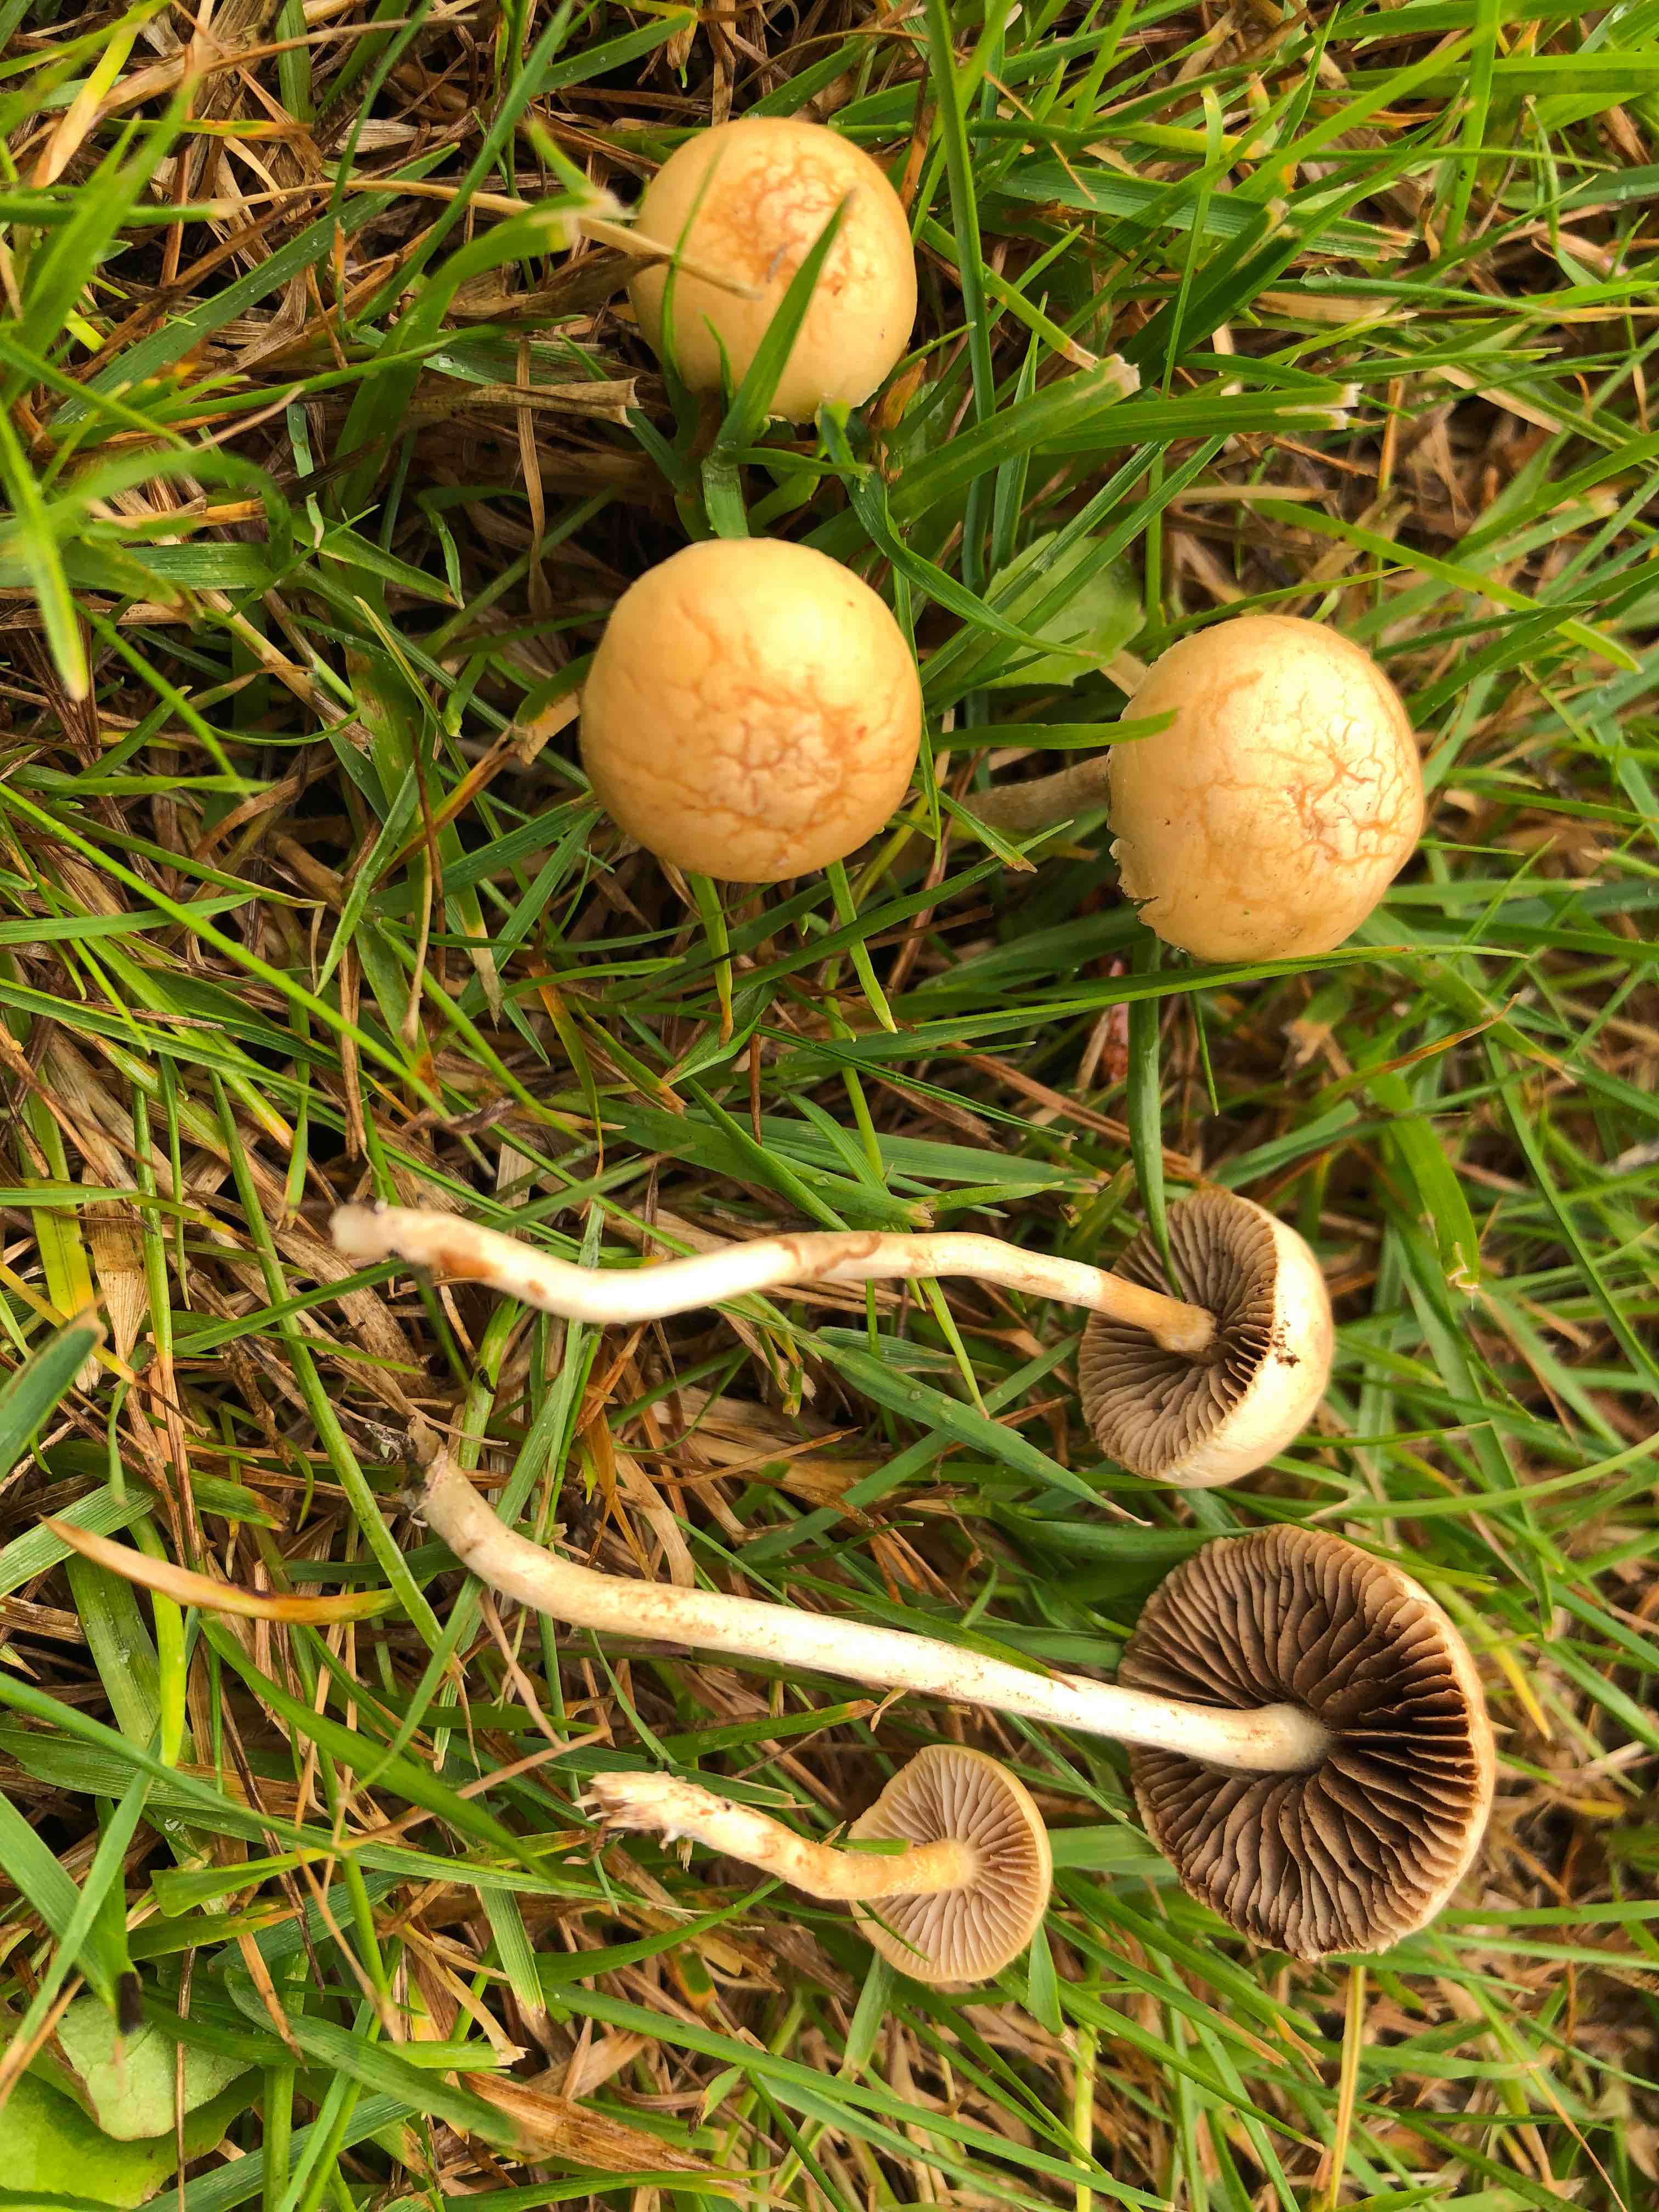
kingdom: Fungi
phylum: Basidiomycota
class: Agaricomycetes
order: Agaricales
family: Strophariaceae
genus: Agrocybe
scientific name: Agrocybe
